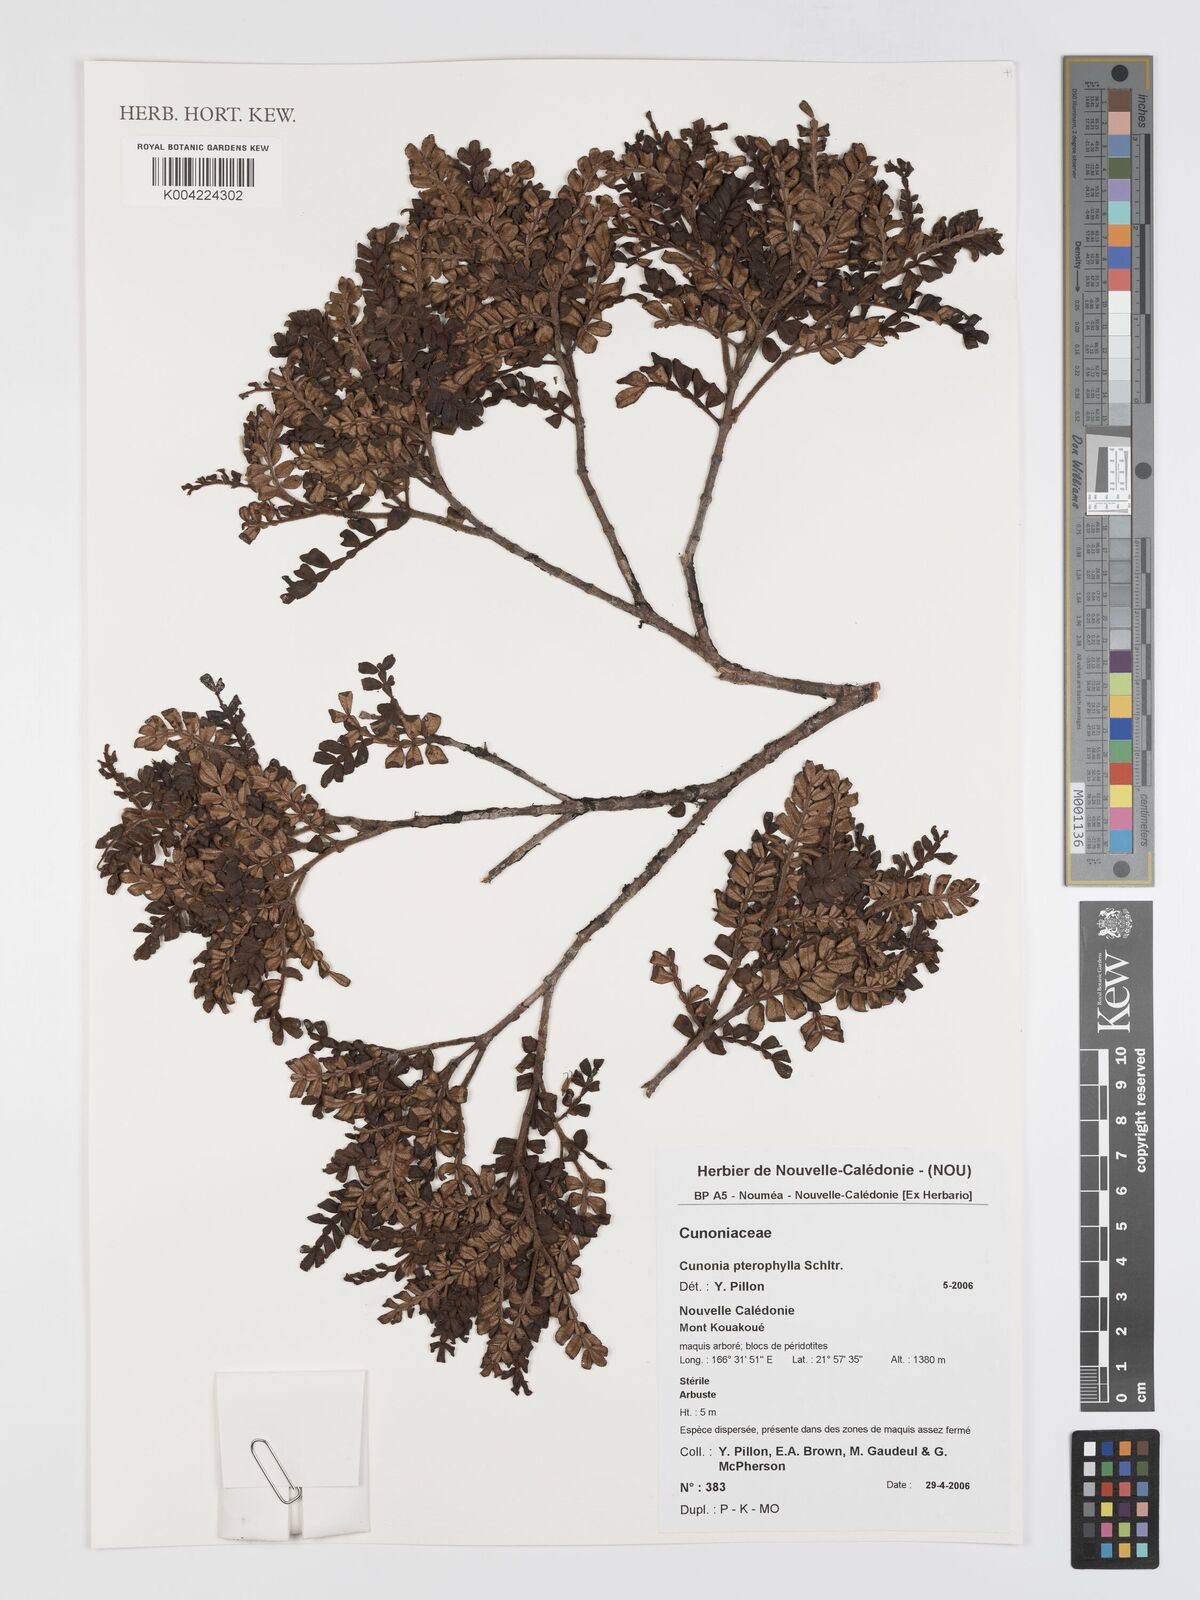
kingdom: Plantae
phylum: Tracheophyta
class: Magnoliopsida
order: Oxalidales
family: Cunoniaceae
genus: Cunonia
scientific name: Cunonia pterophylla
